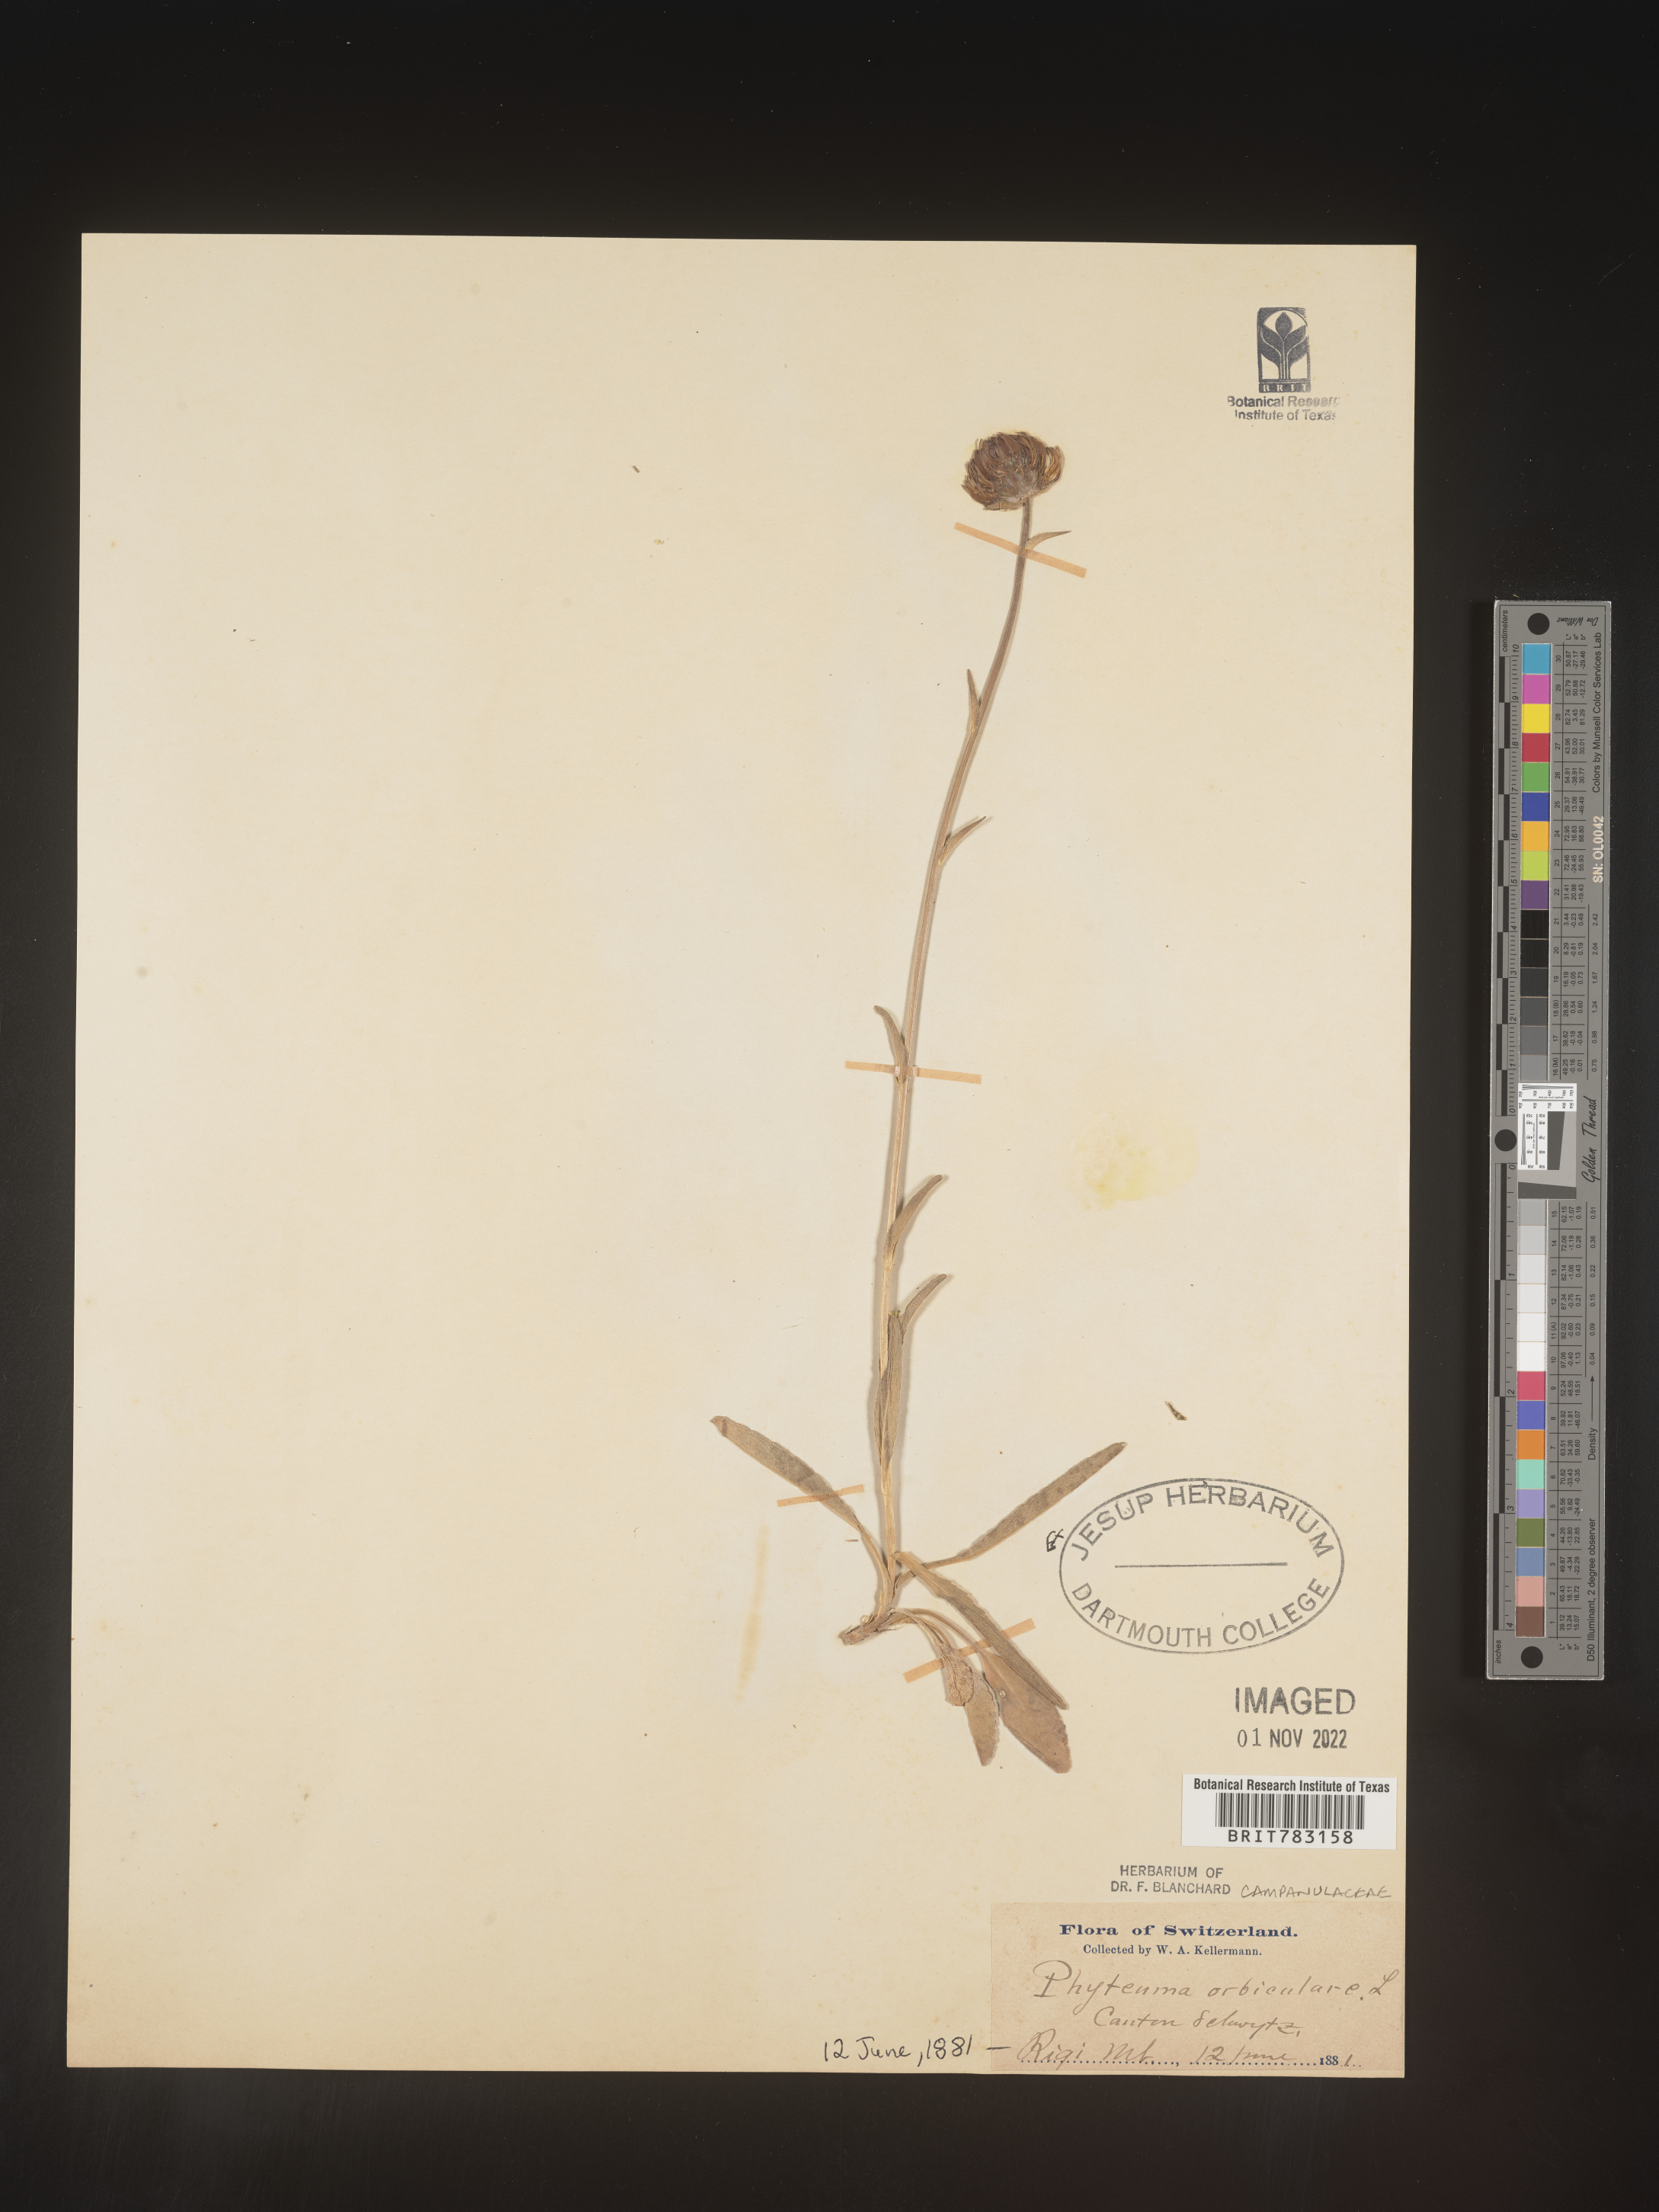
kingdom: Plantae
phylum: Tracheophyta
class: Magnoliopsida
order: Asterales
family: Campanulaceae
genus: Phyteuma
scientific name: Phyteuma
